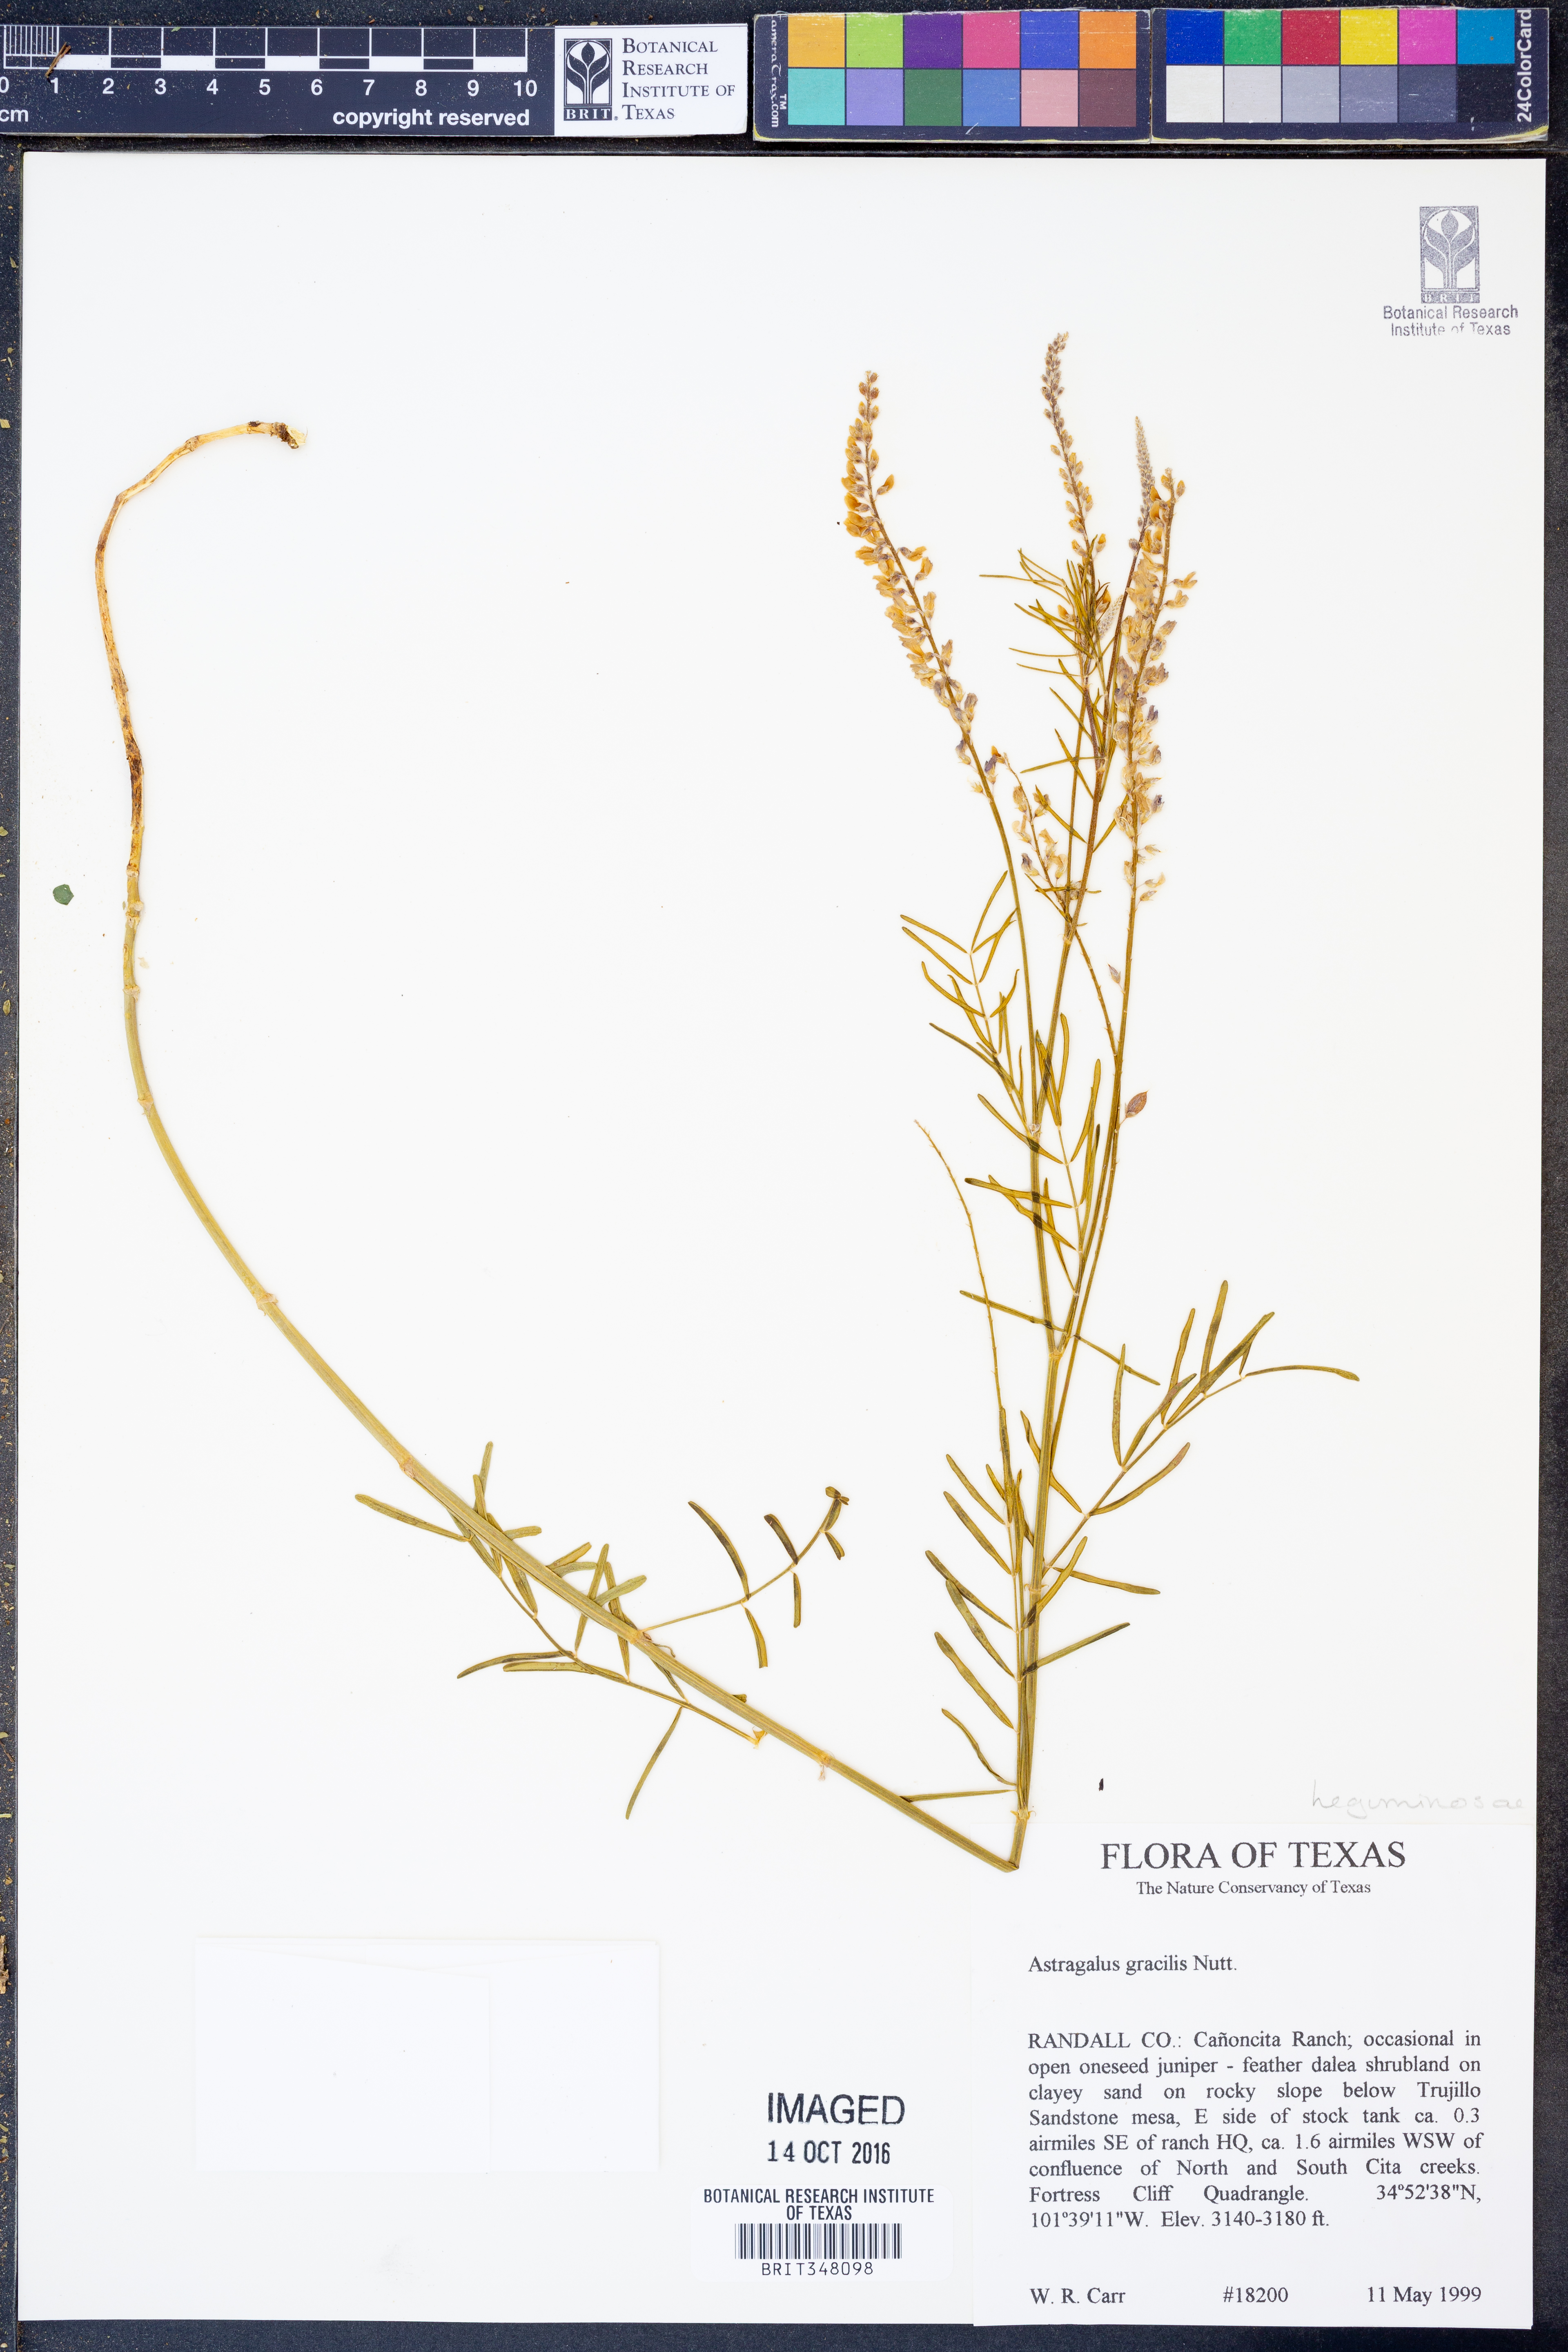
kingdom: Plantae
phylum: Tracheophyta
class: Magnoliopsida
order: Fabales
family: Fabaceae
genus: Astragalus
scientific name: Astragalus gracilis
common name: Slender milk-vetch
